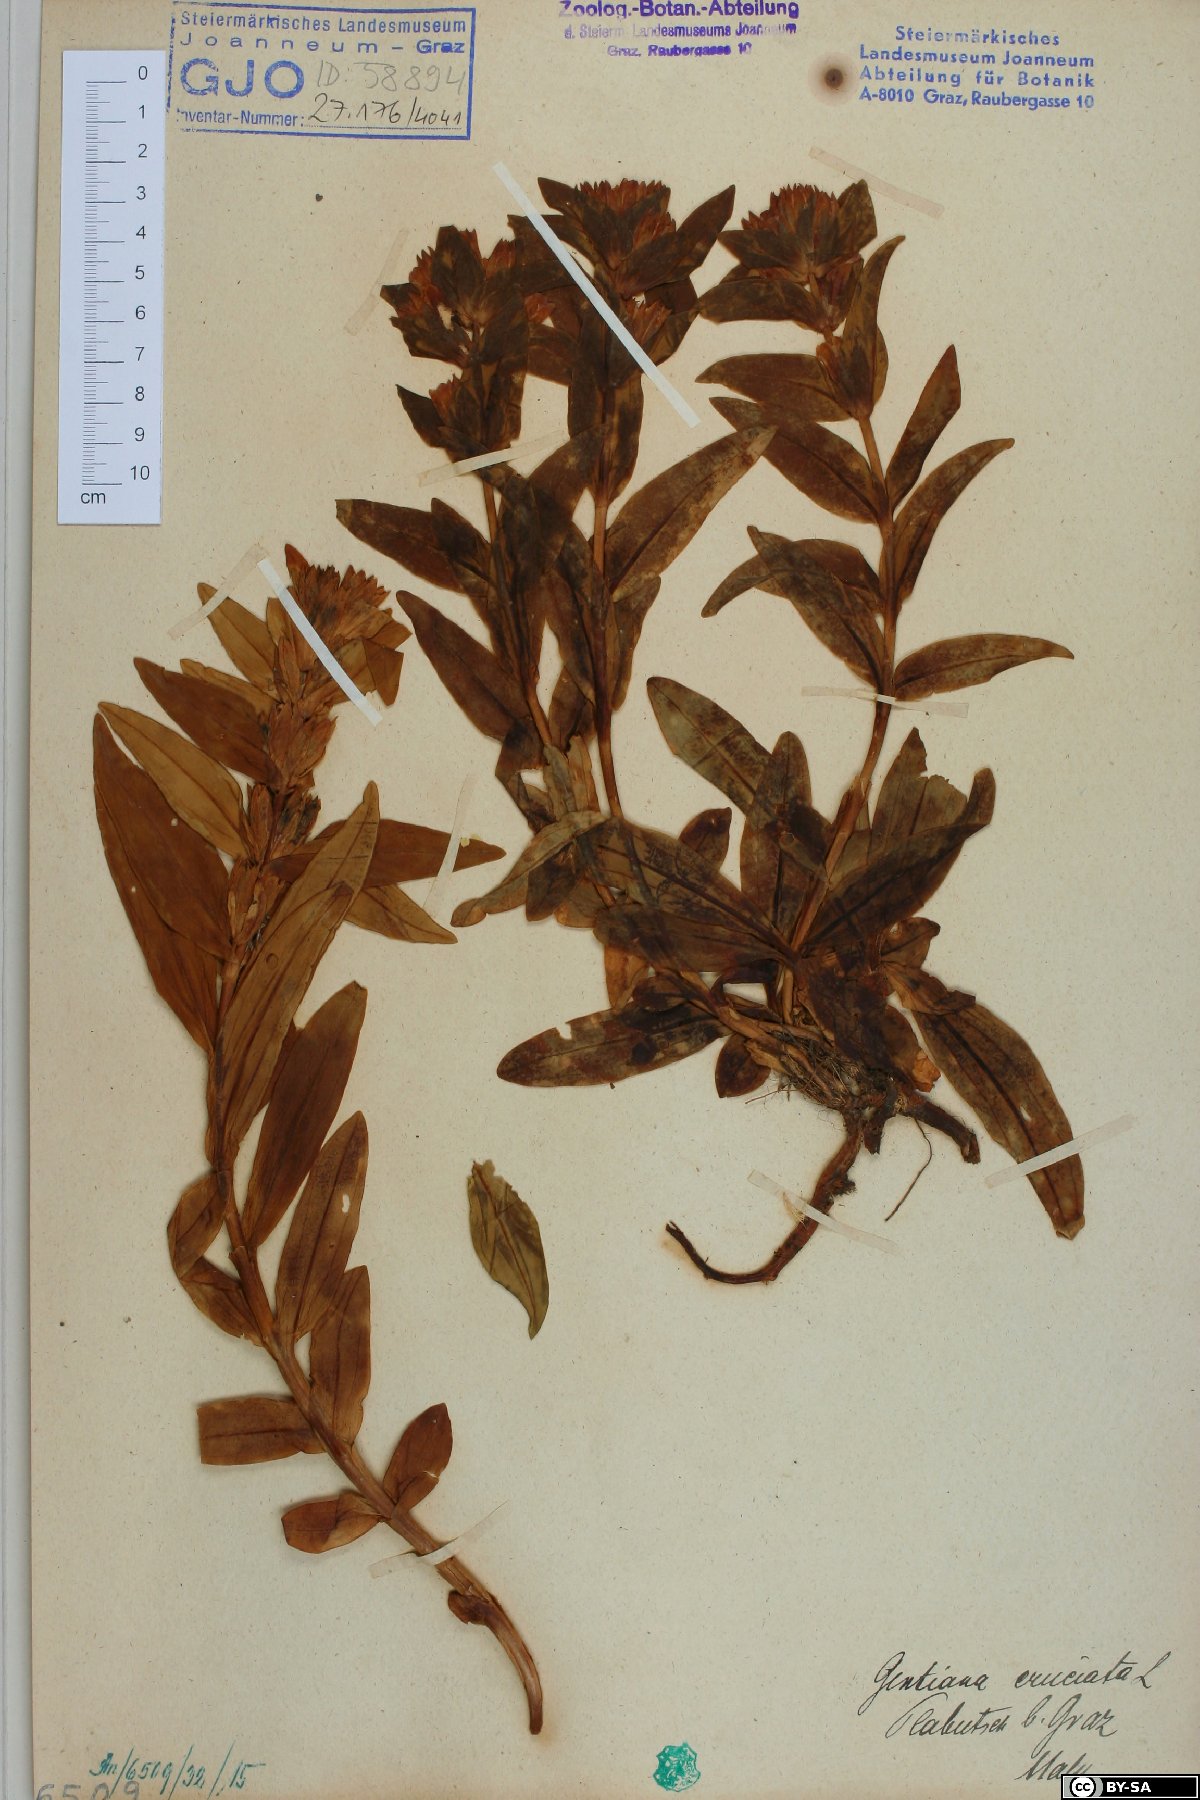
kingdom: Plantae
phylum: Tracheophyta
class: Magnoliopsida
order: Gentianales
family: Gentianaceae
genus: Gentiana
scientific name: Gentiana cruciata
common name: Cross gentian
